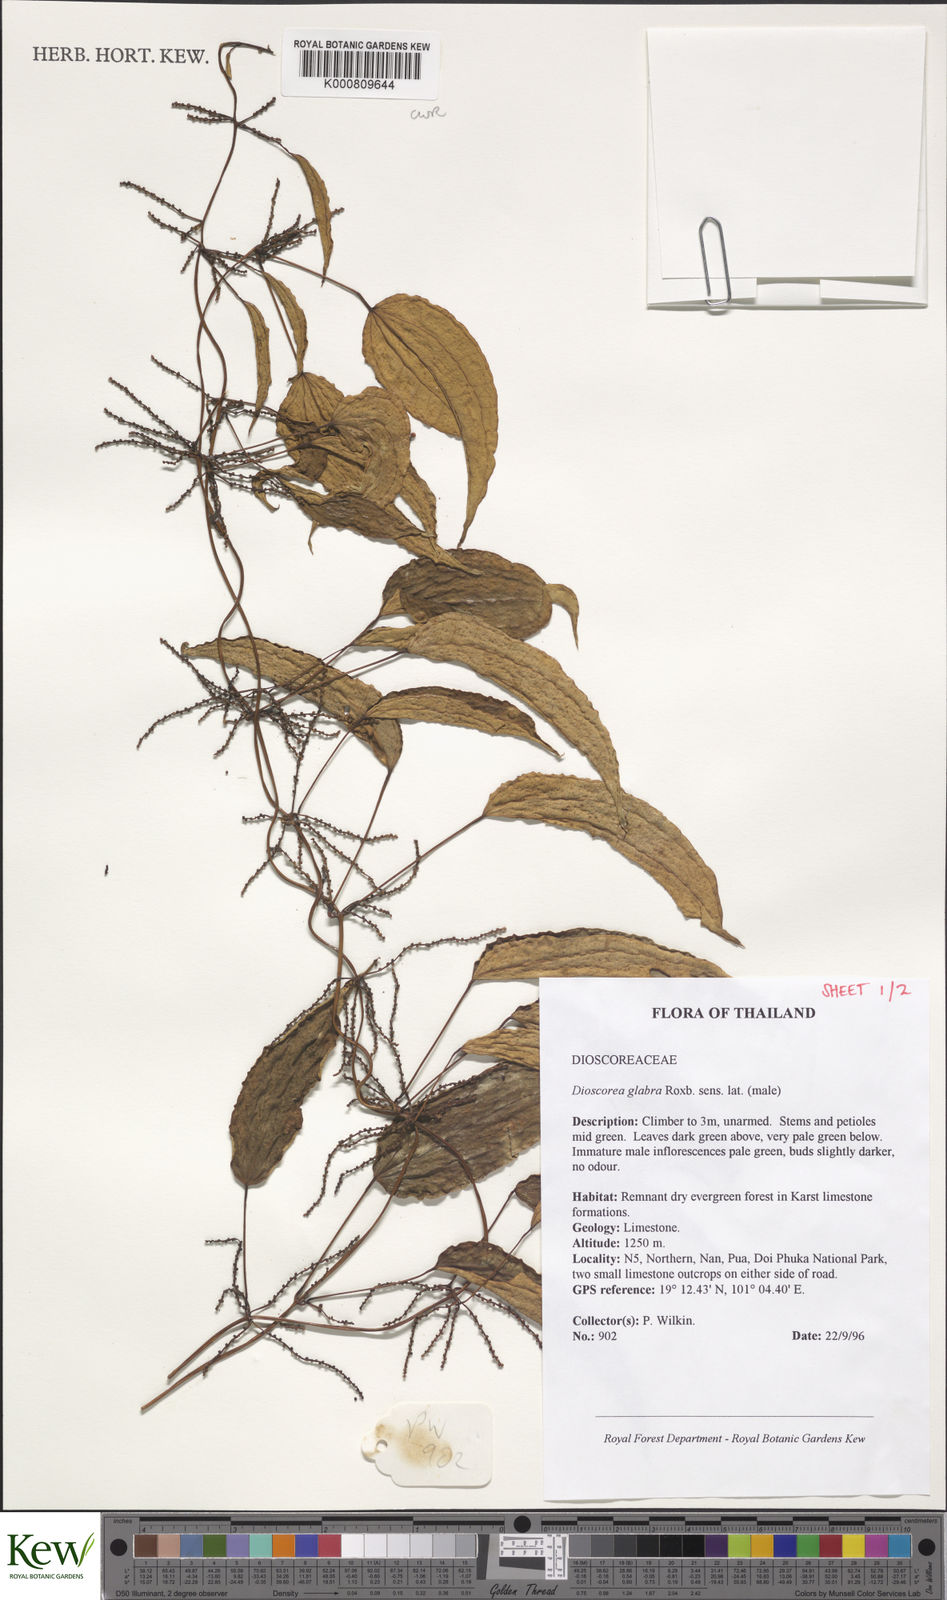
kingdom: Plantae
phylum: Tracheophyta
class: Liliopsida
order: Dioscoreales
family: Dioscoreaceae
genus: Dioscorea
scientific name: Dioscorea glabra
